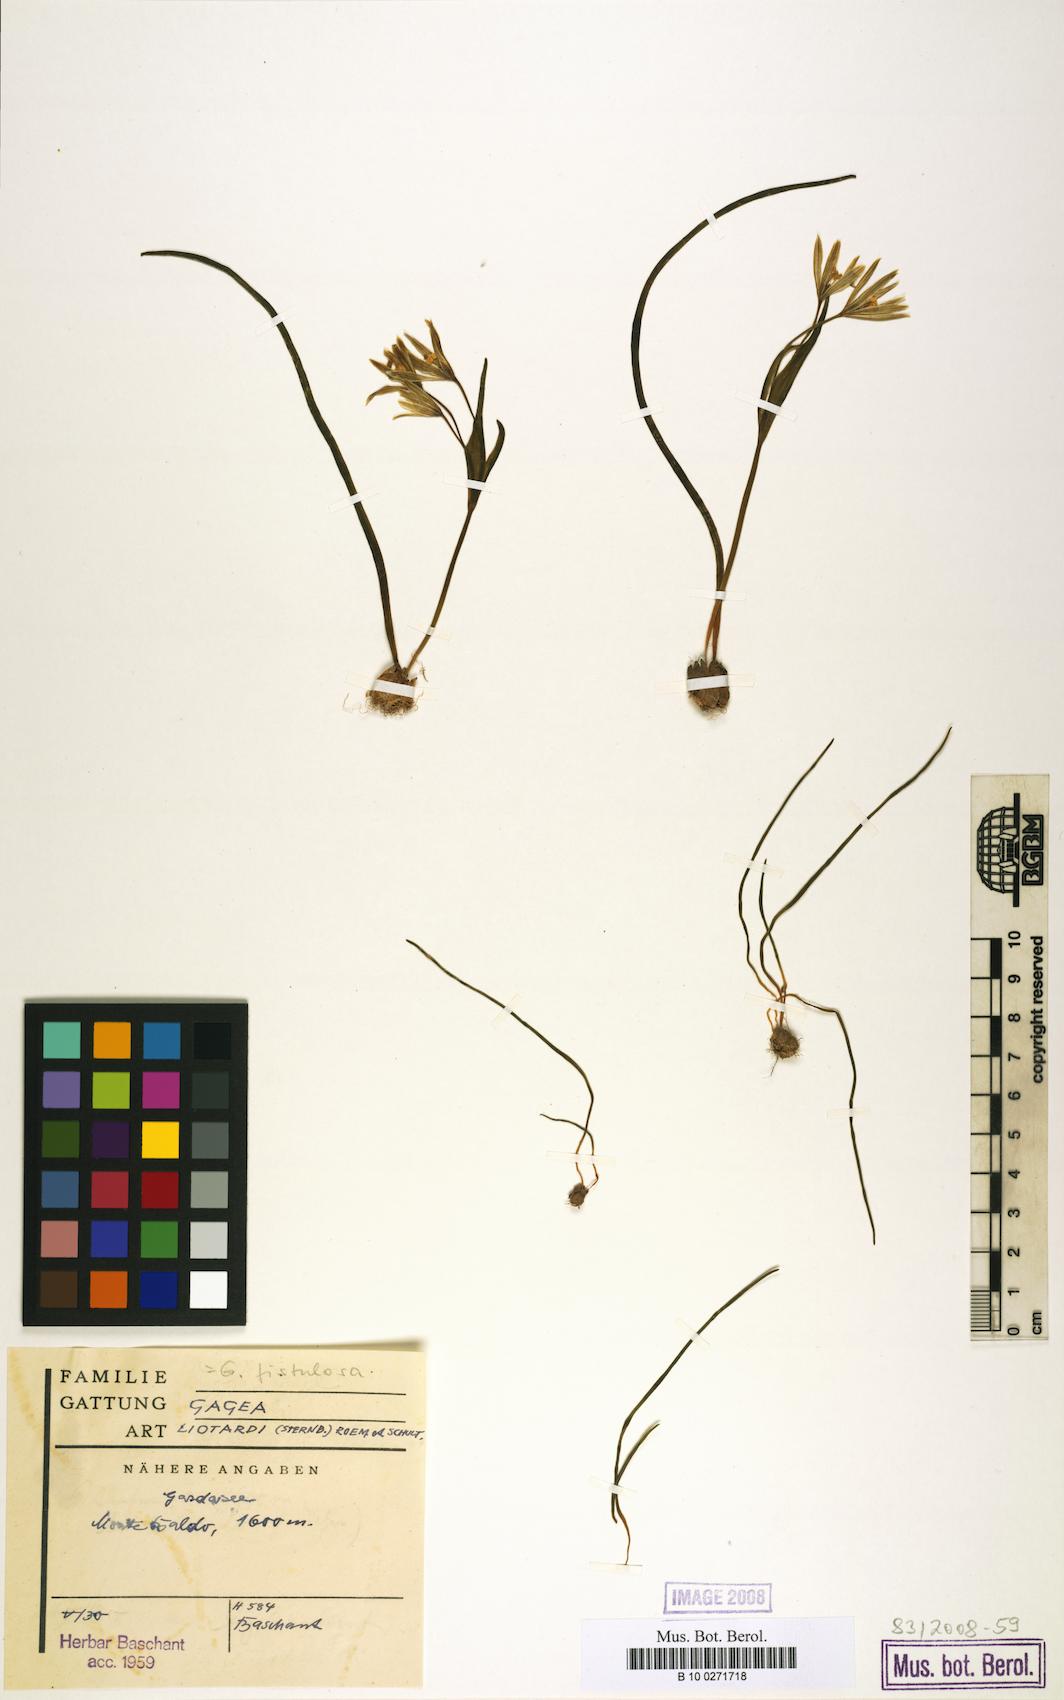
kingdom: Plantae
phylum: Tracheophyta
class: Liliopsida
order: Liliales
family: Liliaceae
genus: Gagea
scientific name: Gagea bohemica
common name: Early star-of-bethlehem
